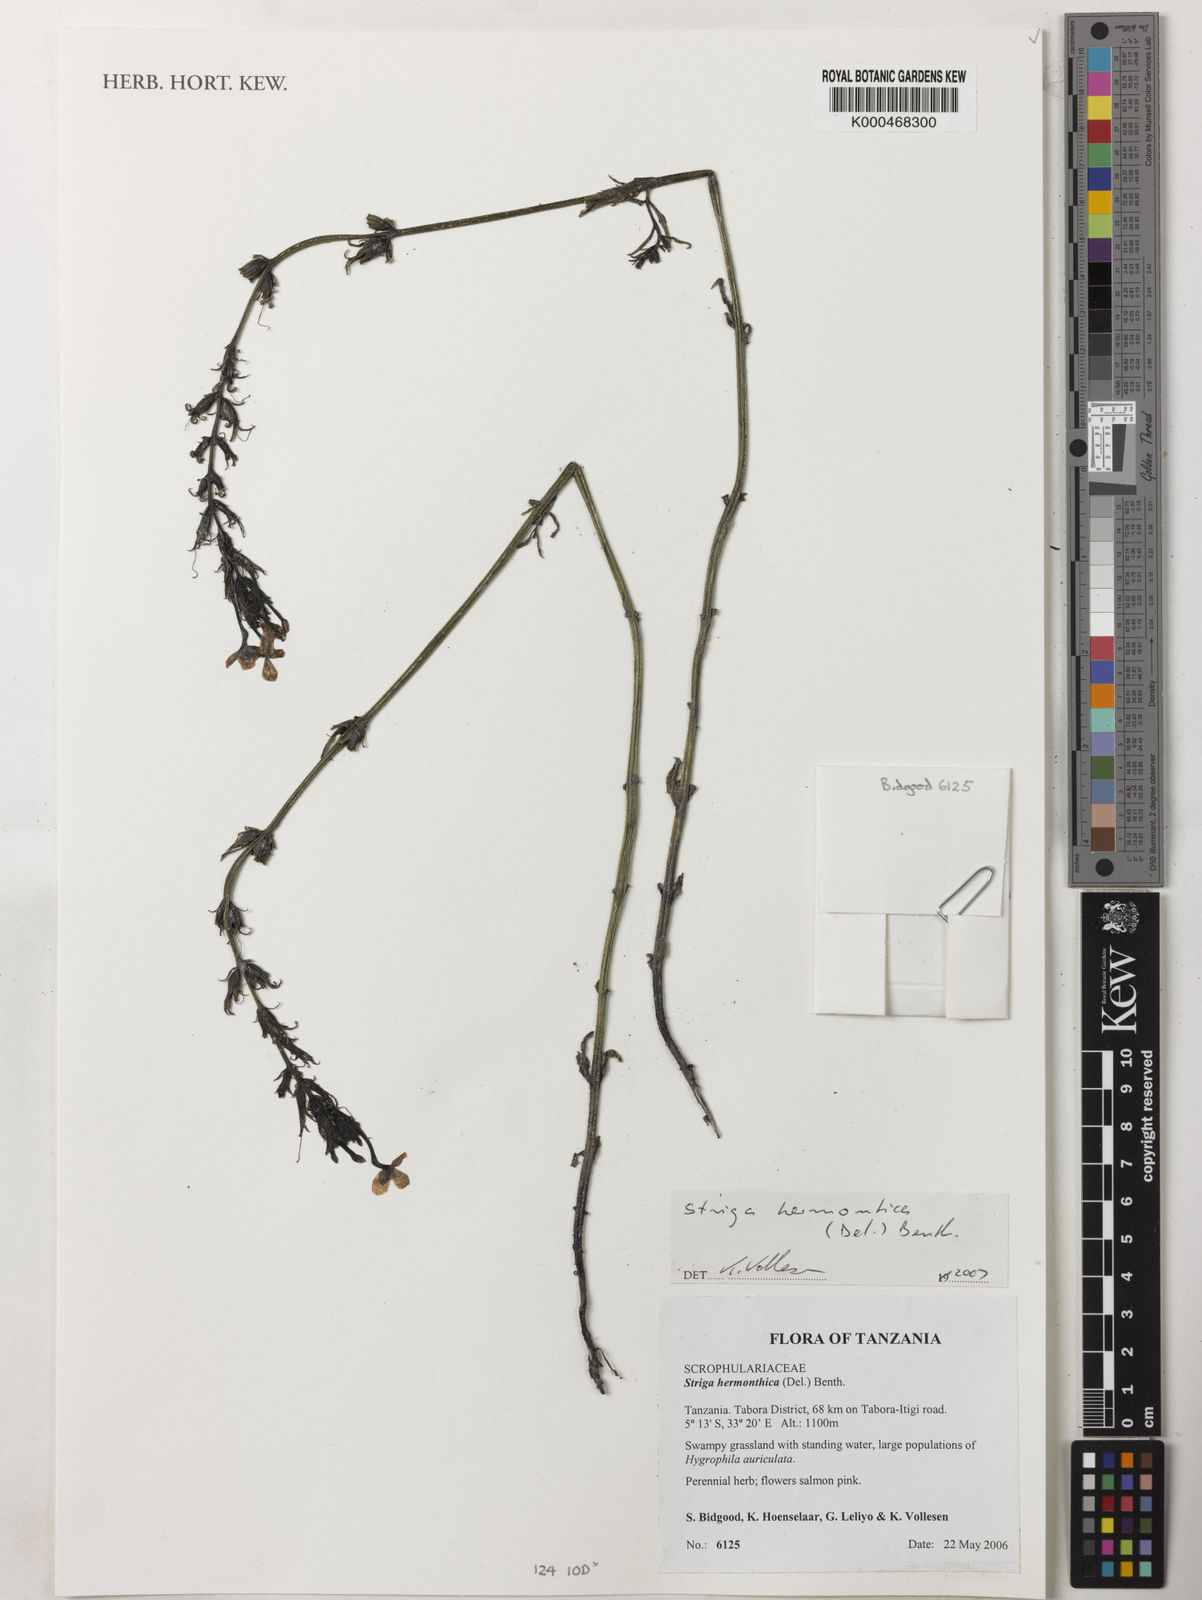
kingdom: Plantae
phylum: Tracheophyta
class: Magnoliopsida
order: Lamiales
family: Orobanchaceae
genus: Striga
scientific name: Striga hermonthica
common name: Purple witchweed
